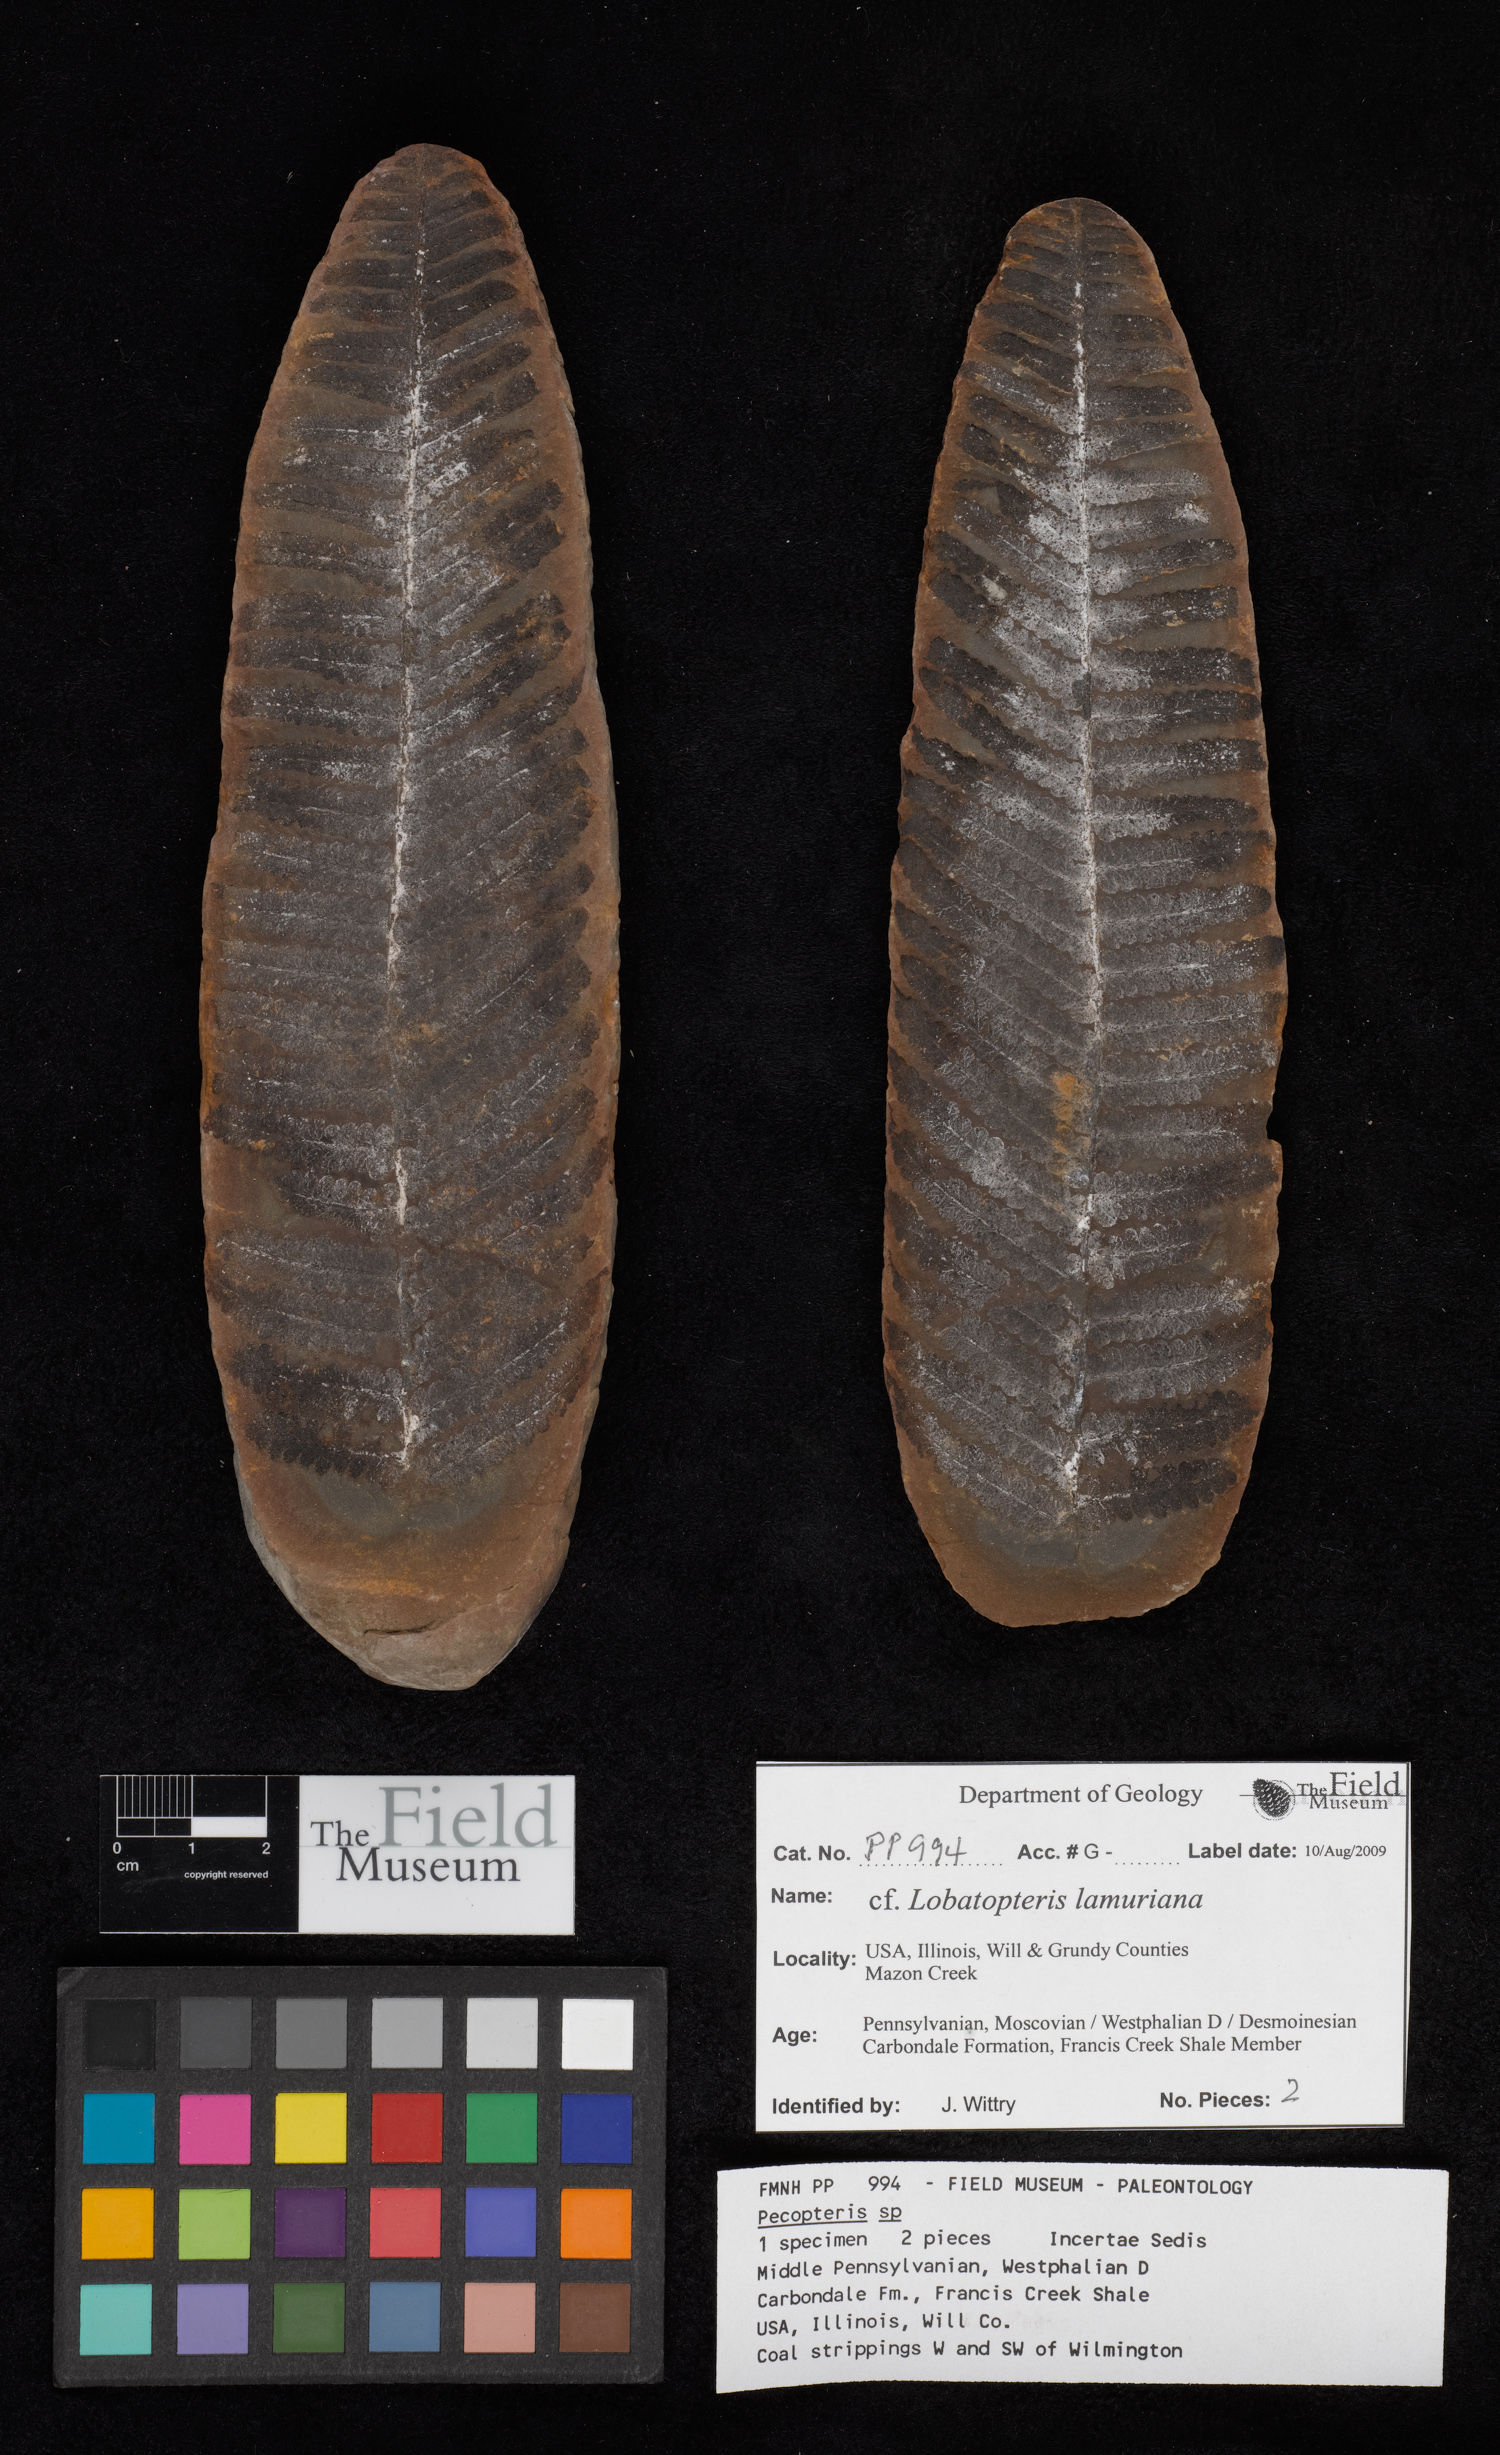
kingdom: Plantae
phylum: Tracheophyta
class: Polypodiopsida
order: Marattiales
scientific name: Marattiales
